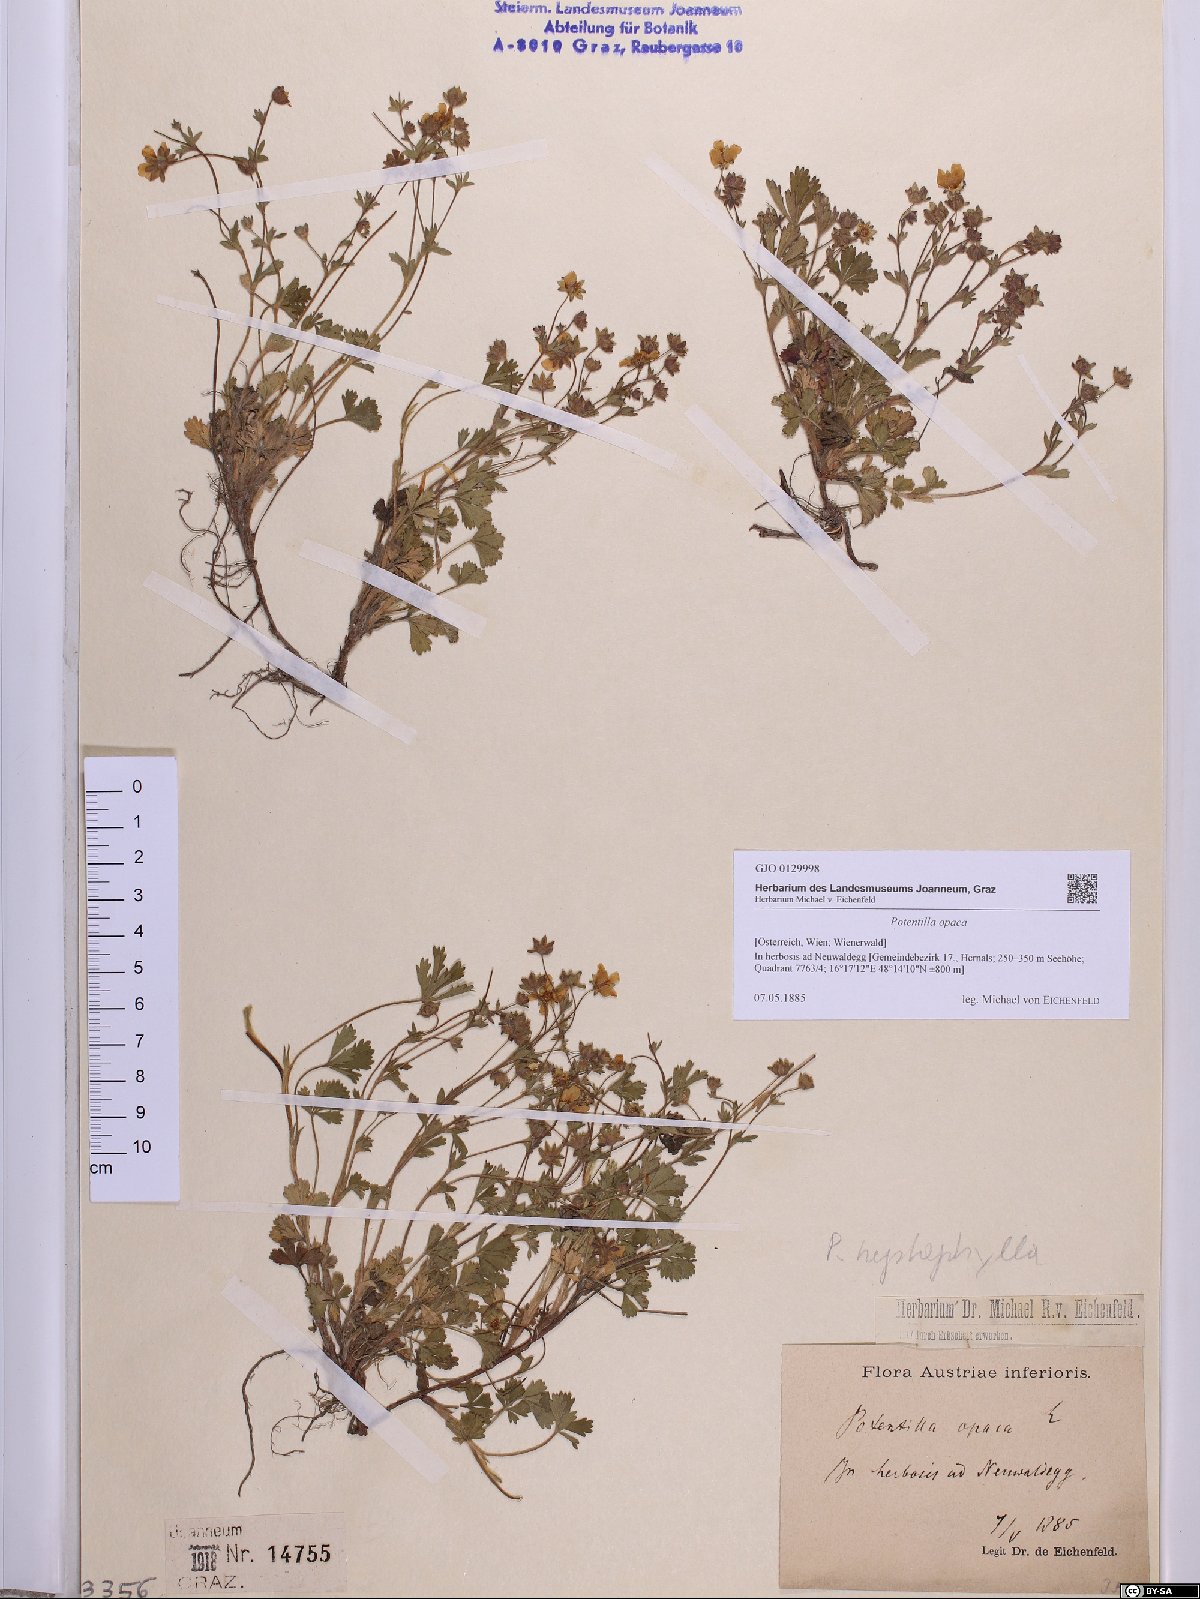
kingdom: Plantae
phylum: Tracheophyta
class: Magnoliopsida
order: Rosales
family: Rosaceae
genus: Potentilla
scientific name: Potentilla
